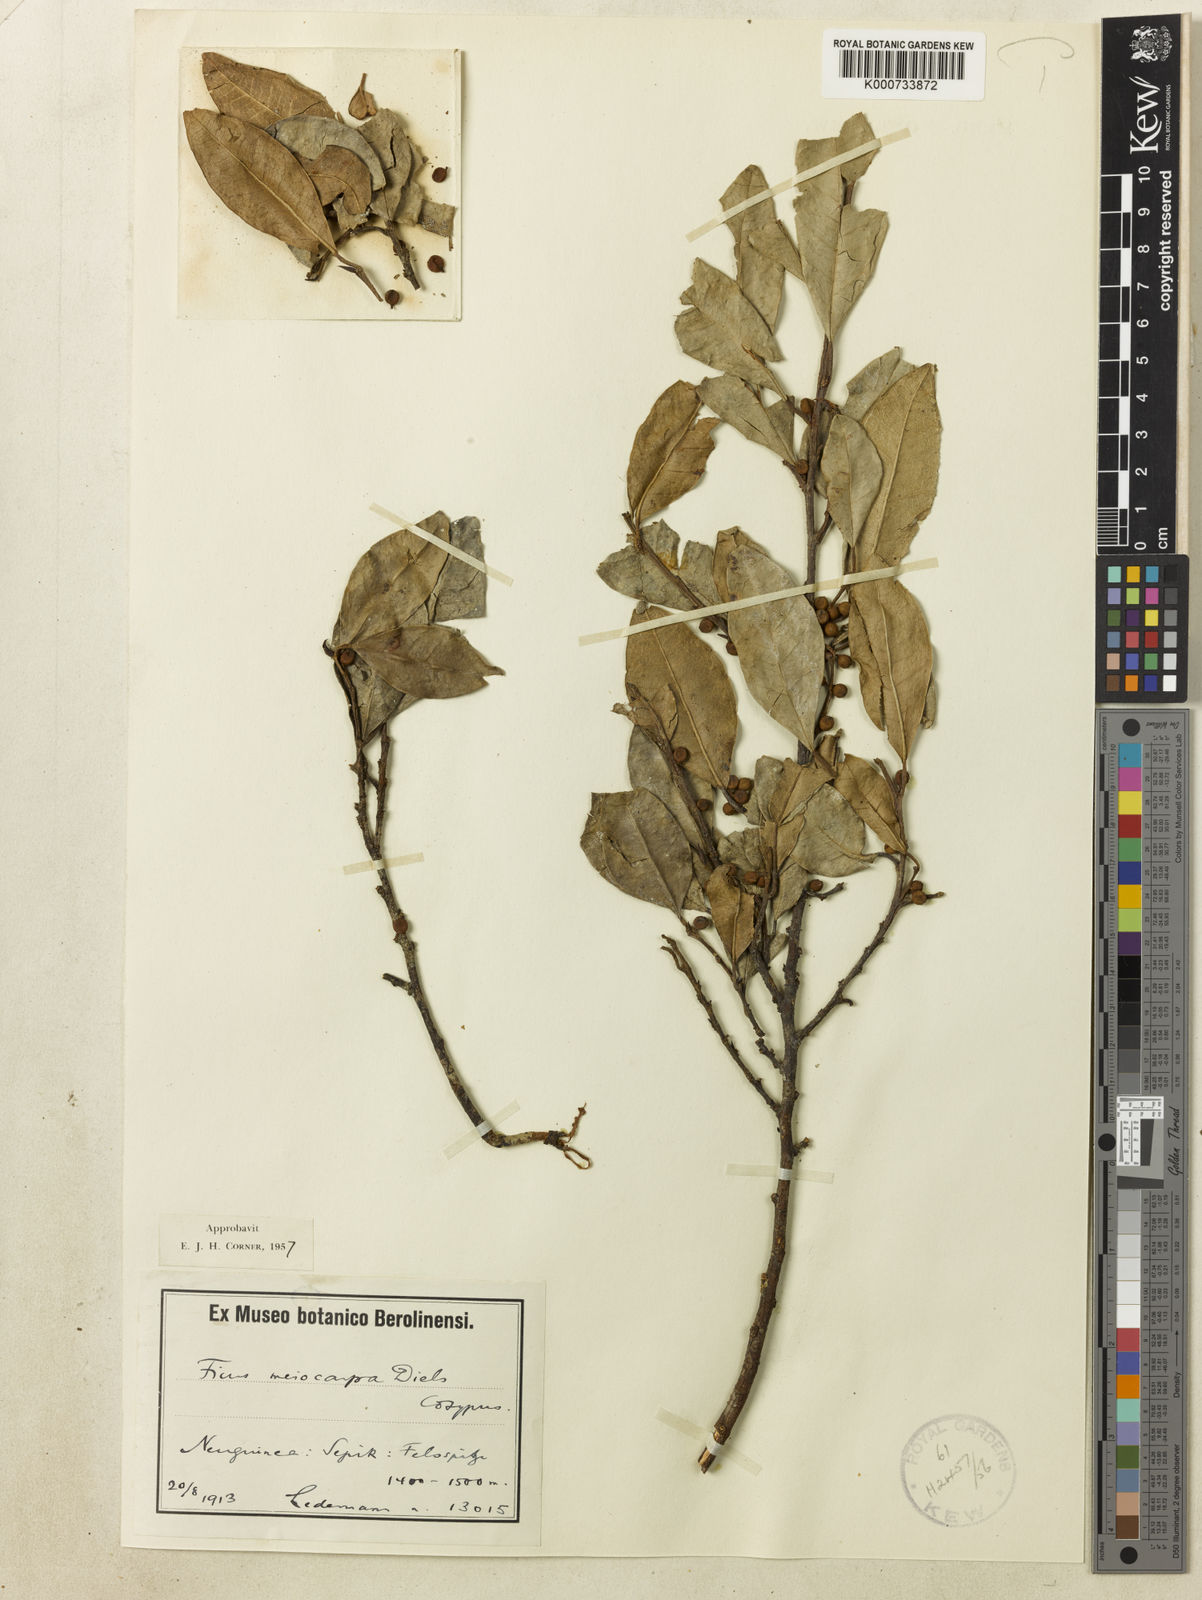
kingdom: Plantae
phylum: Tracheophyta
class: Magnoliopsida
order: Rosales
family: Moraceae
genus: Ficus
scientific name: Ficus phatnophylla
